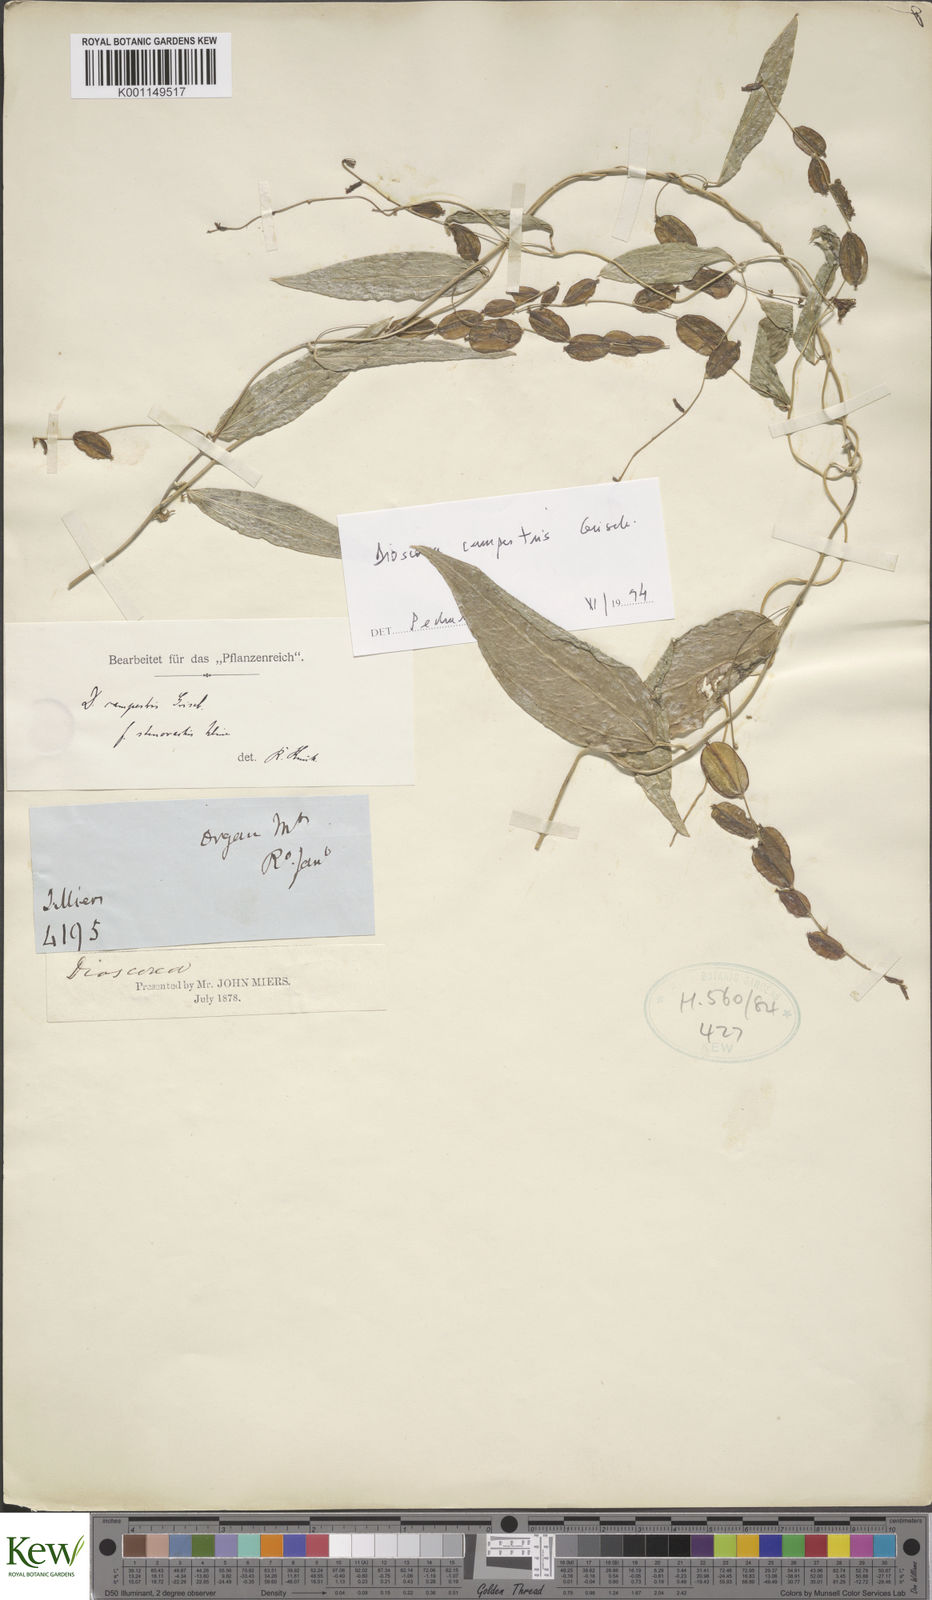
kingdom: Plantae
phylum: Tracheophyta
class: Liliopsida
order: Dioscoreales
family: Dioscoreaceae
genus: Dioscorea
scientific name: Dioscorea campestris
